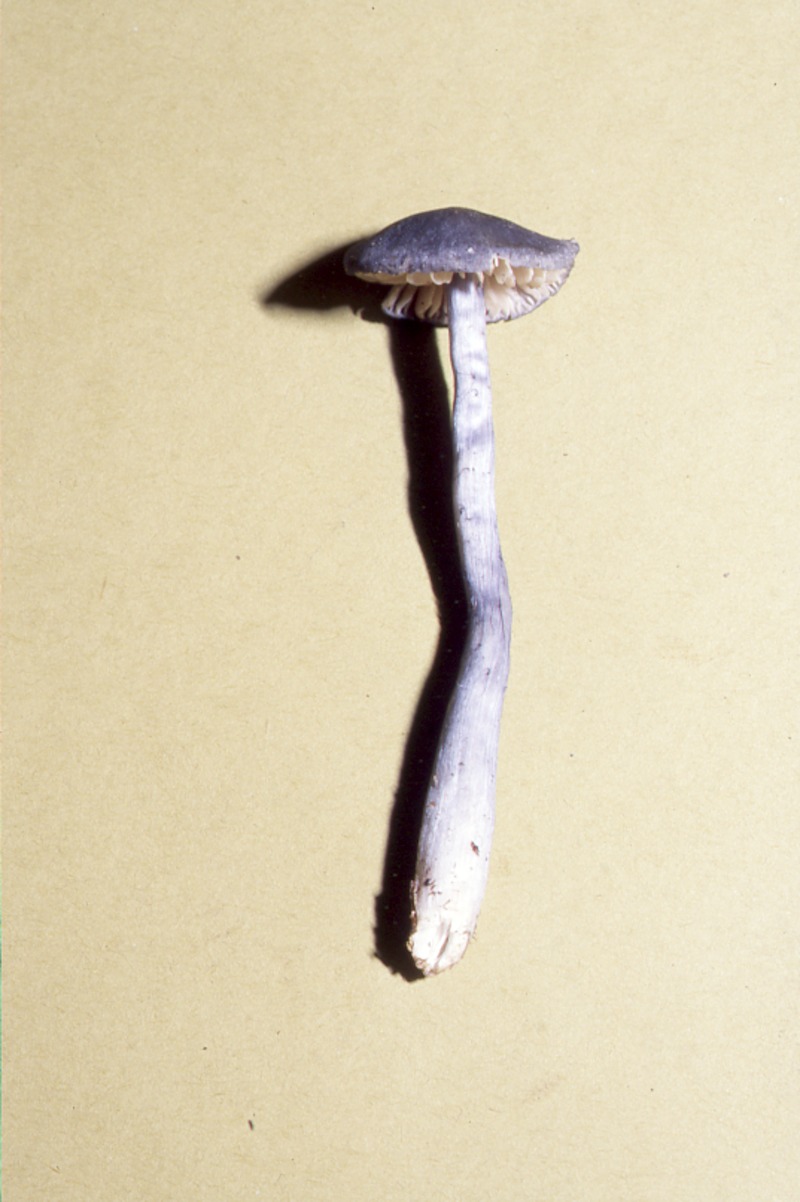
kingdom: Fungi
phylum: Basidiomycota
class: Agaricomycetes
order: Agaricales
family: Entolomataceae
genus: Entocybe
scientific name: Entocybe nitida
